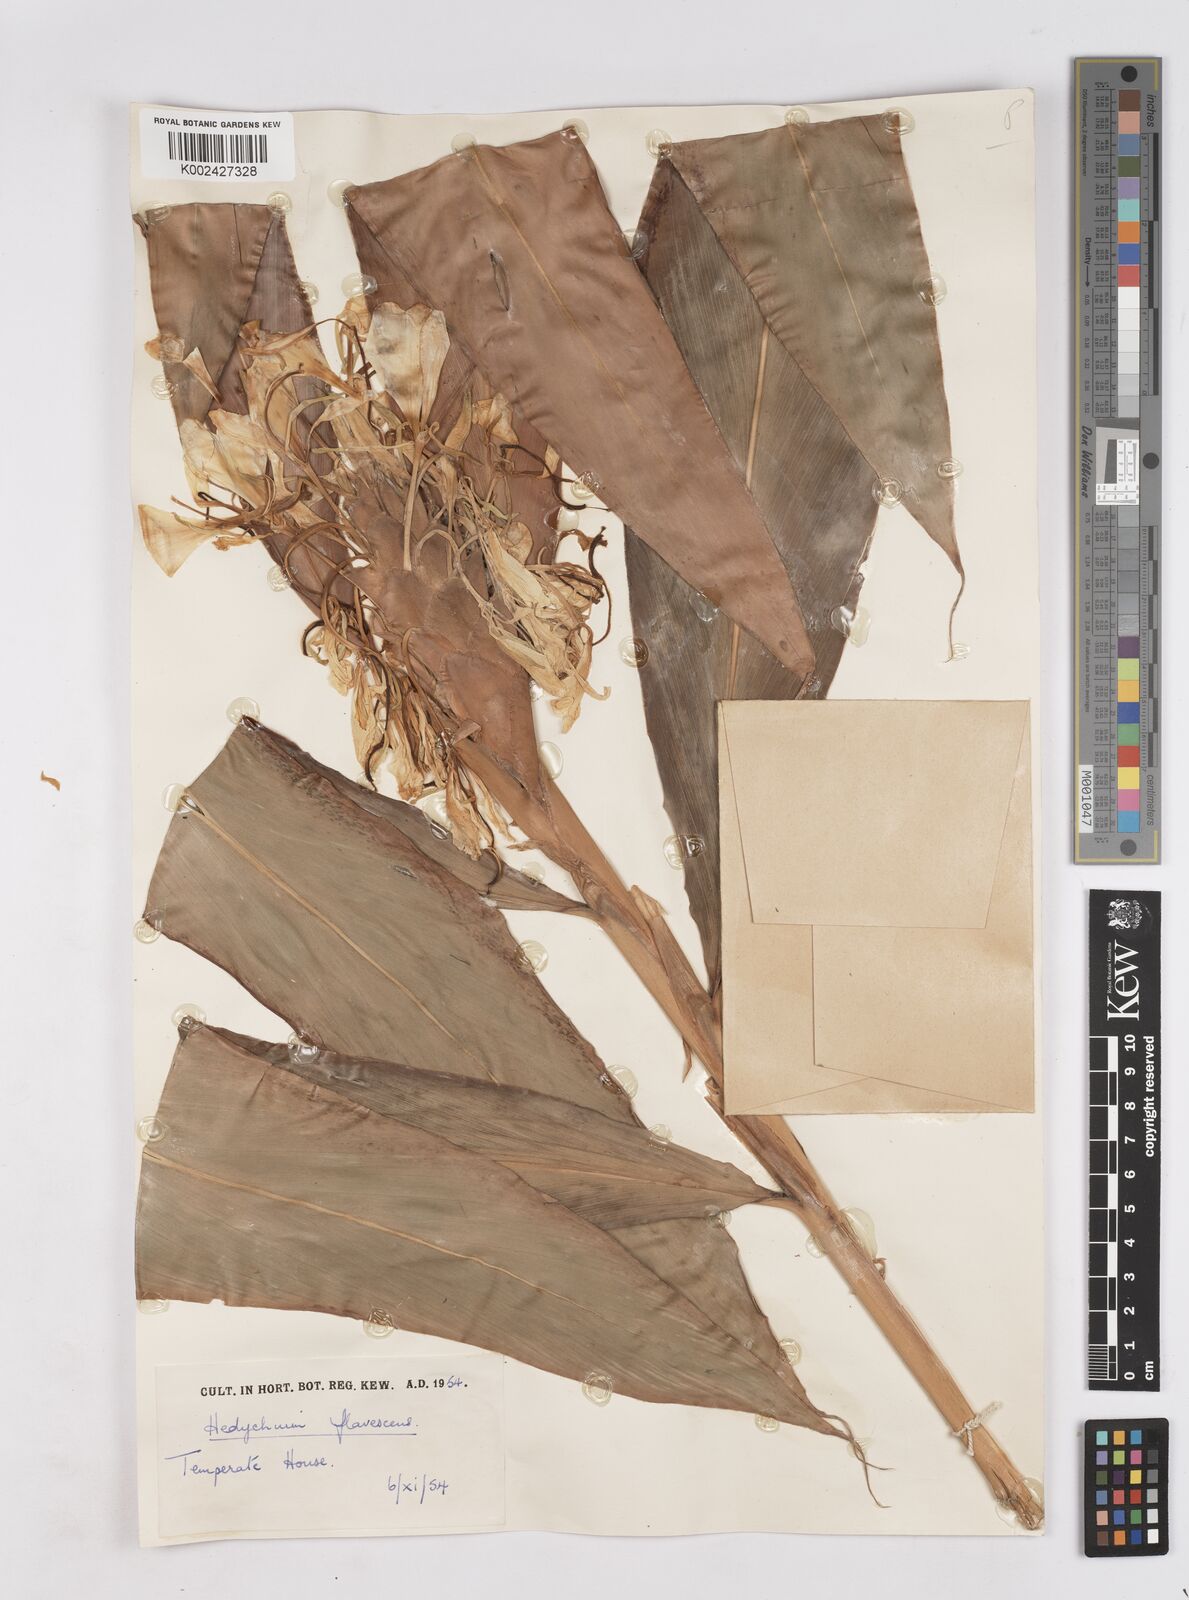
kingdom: Plantae
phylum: Tracheophyta
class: Liliopsida
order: Zingiberales
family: Zingiberaceae
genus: Hedychium
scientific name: Hedychium flavescens
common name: Yellow ginger
